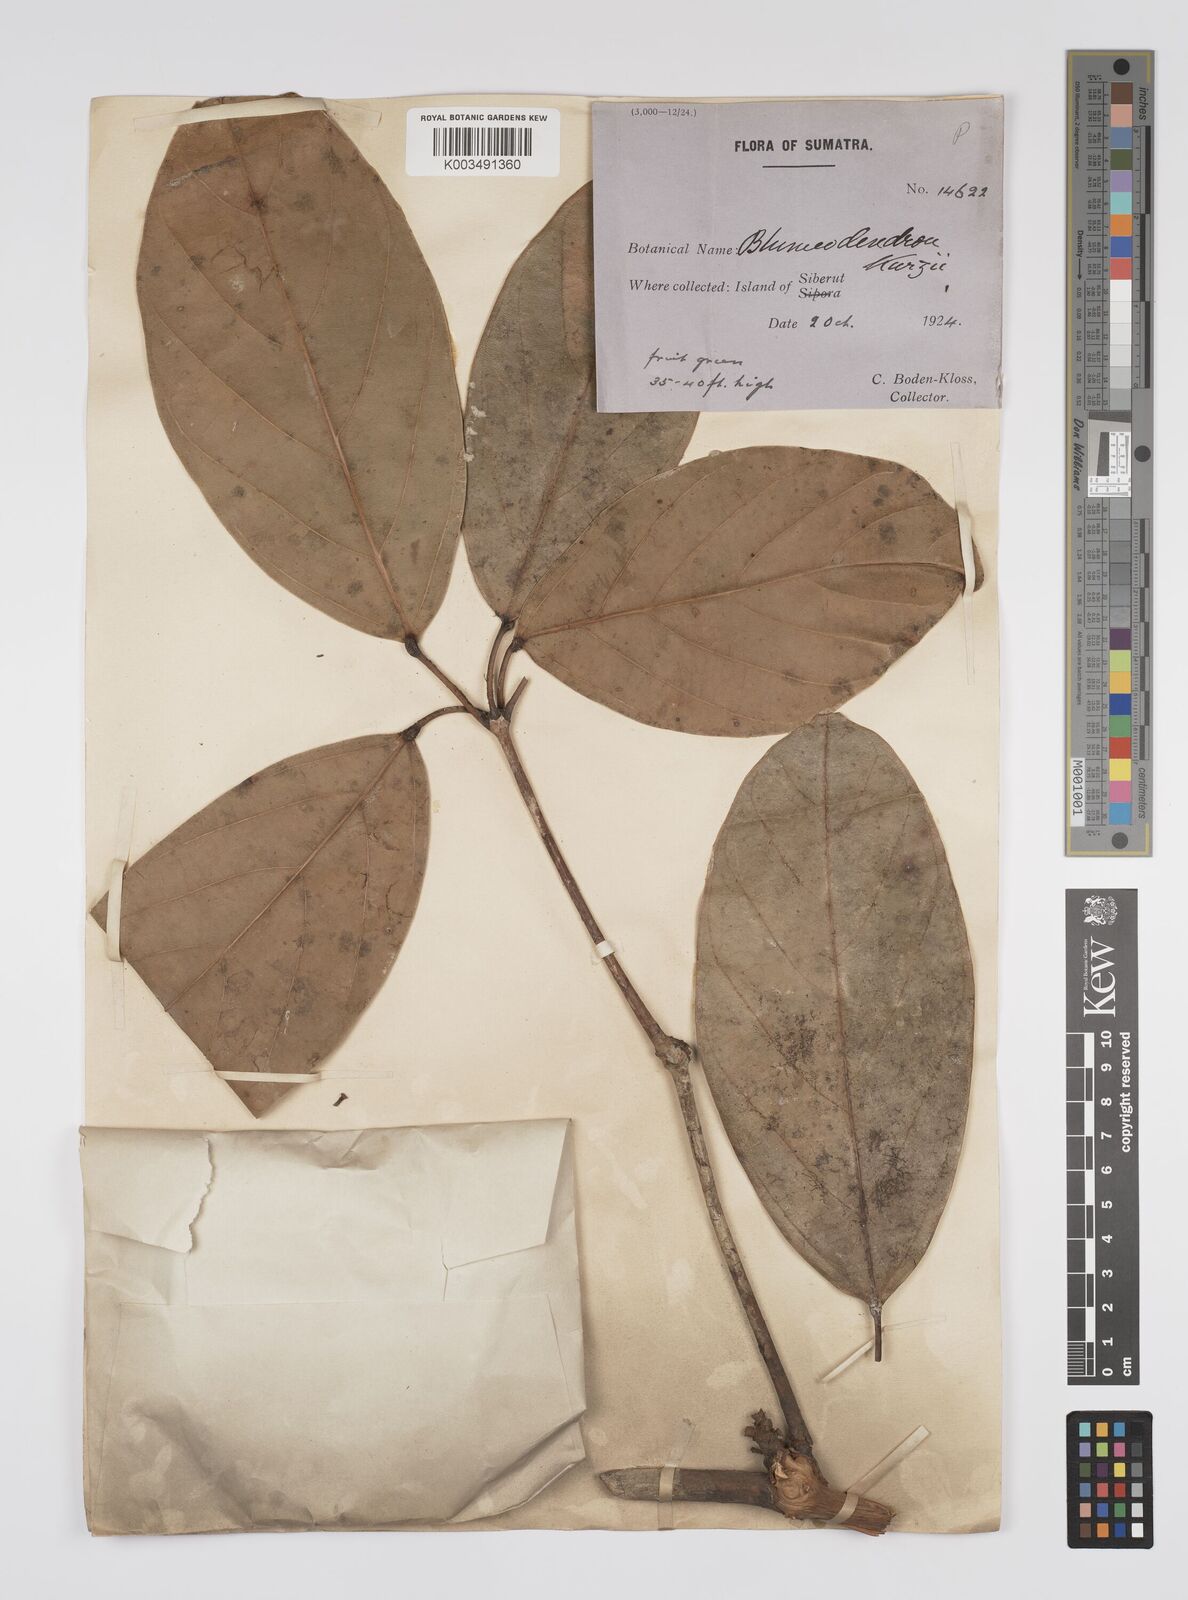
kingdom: Plantae
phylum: Tracheophyta
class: Magnoliopsida
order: Malpighiales
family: Euphorbiaceae
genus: Blumeodendron
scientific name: Blumeodendron kurzii
